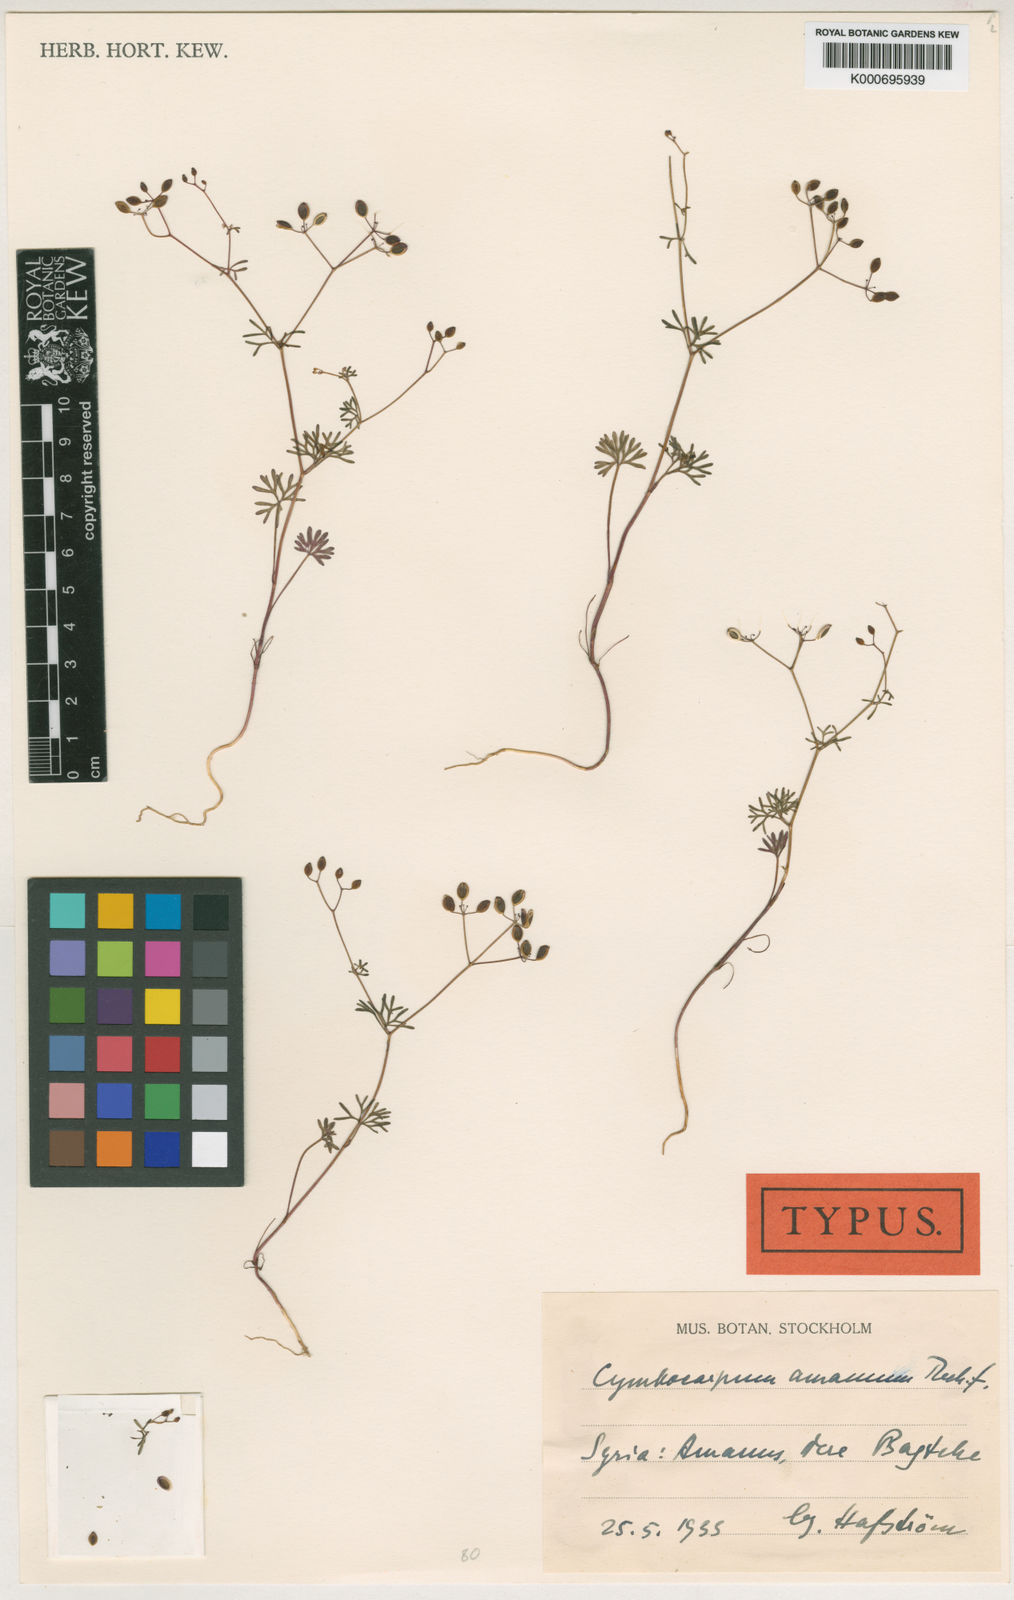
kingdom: Plantae
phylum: Tracheophyta
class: Magnoliopsida
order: Apiales
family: Apiaceae
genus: Cymbocarpum
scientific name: Cymbocarpum amanum
